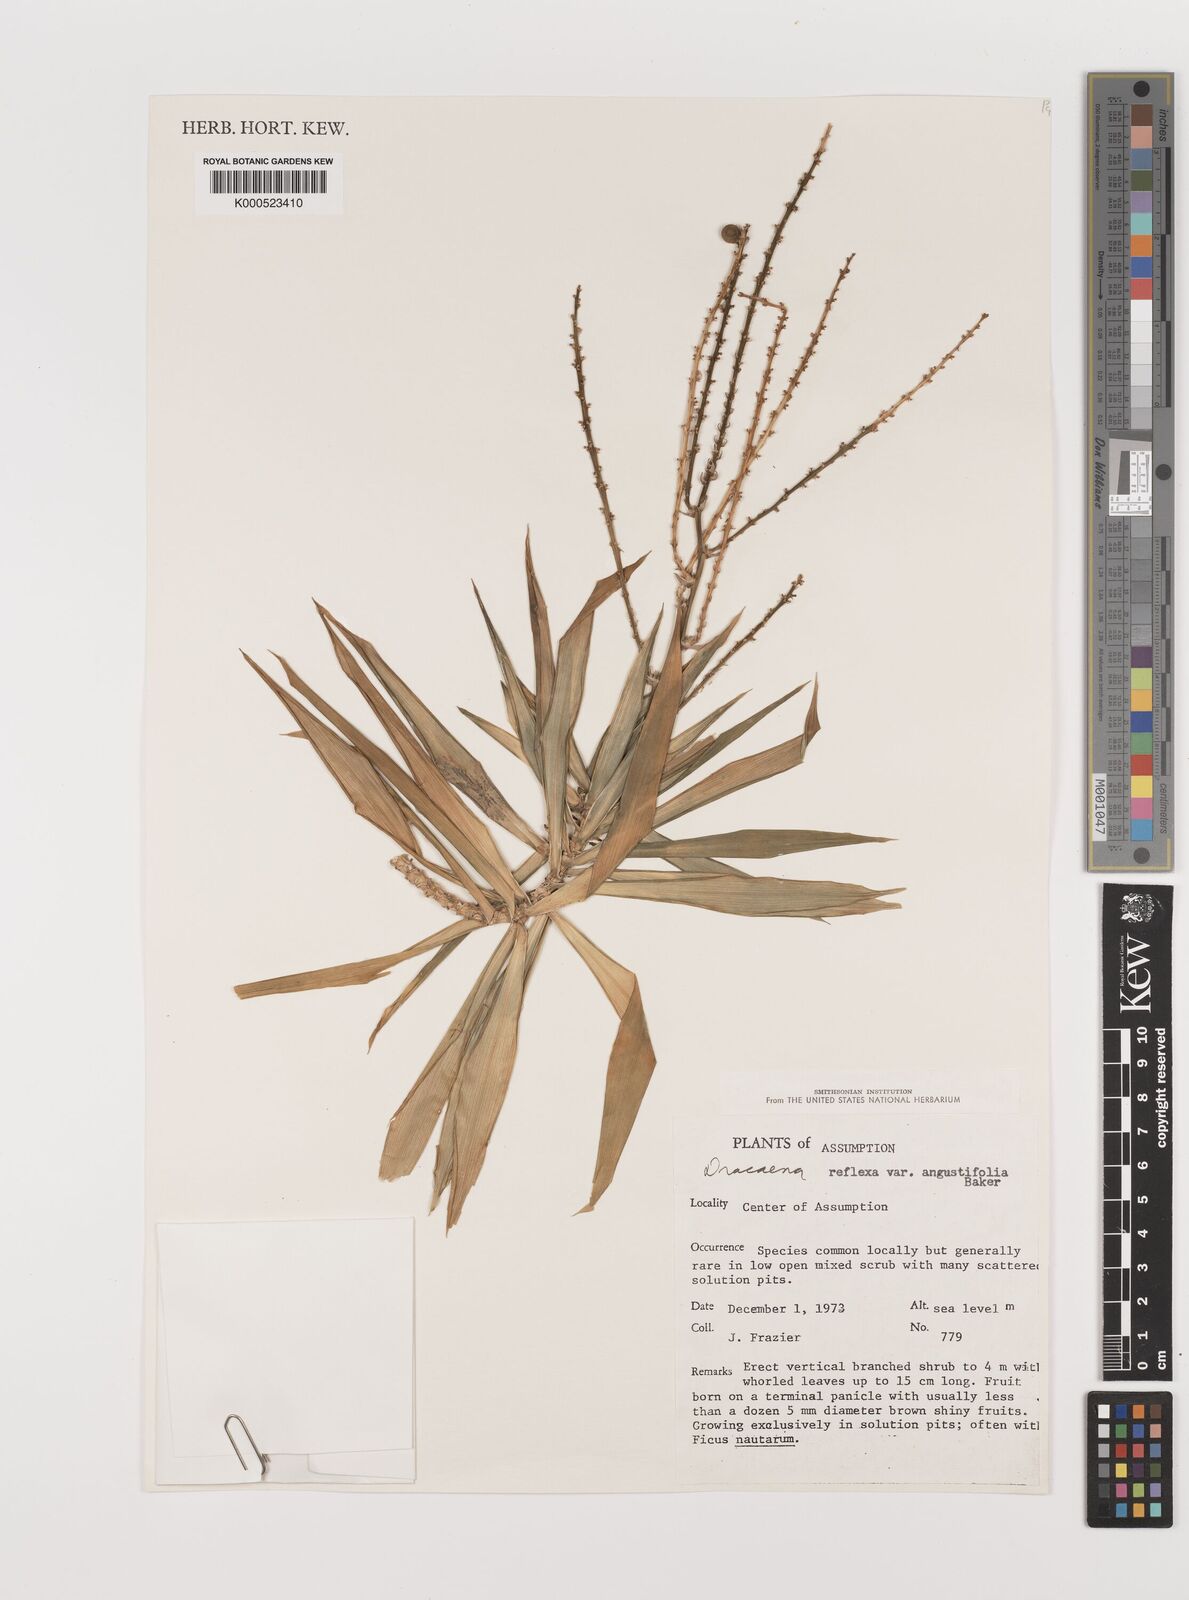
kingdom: Plantae
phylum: Tracheophyta
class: Liliopsida
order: Asparagales
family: Asparagaceae
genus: Dracaena
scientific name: Dracaena reflexa
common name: Song-of-india
